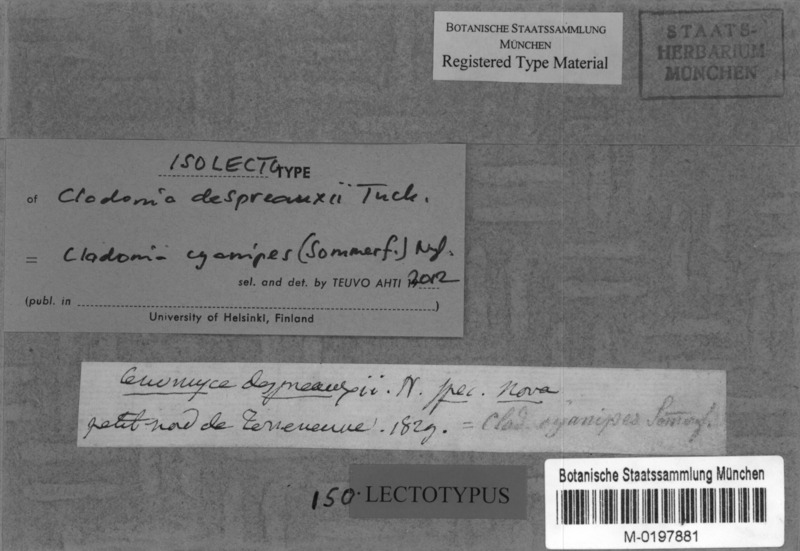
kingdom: Fungi
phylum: Ascomycota
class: Lecanoromycetes
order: Lecanorales
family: Cladoniaceae
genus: Cladonia
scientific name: Cladonia cyanipes
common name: Blue-footed pixie lichen
